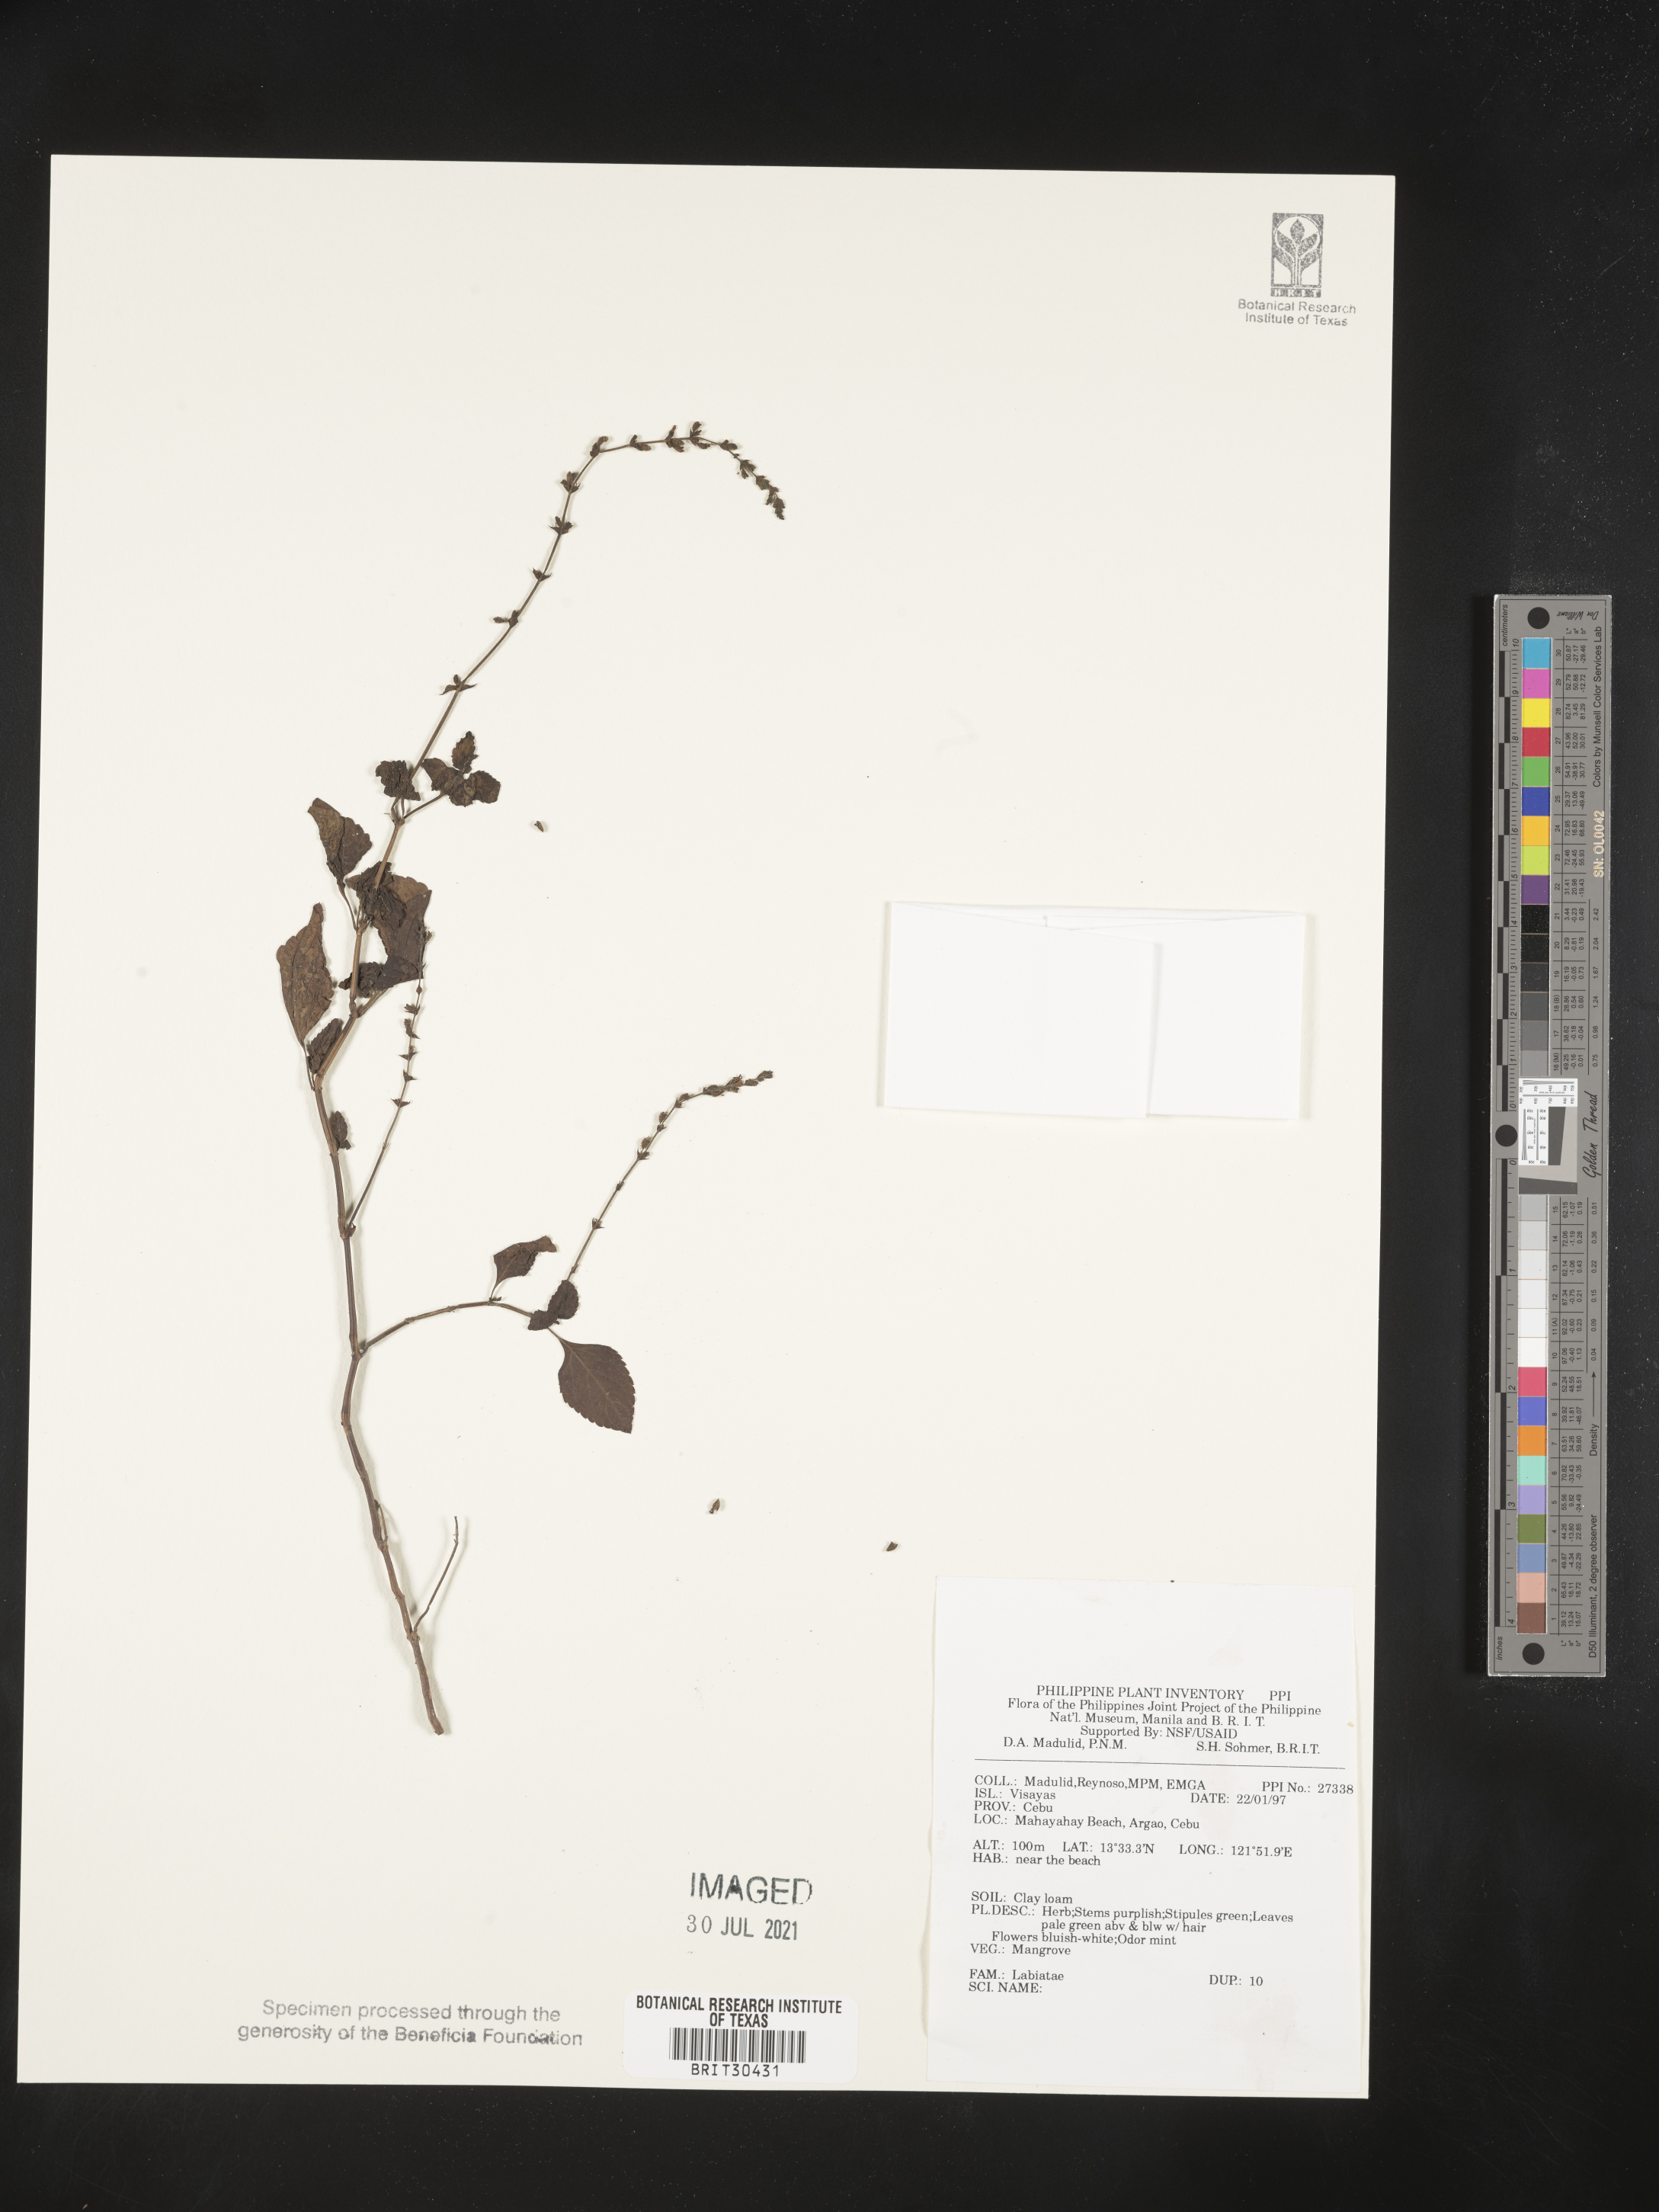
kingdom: Plantae
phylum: Tracheophyta
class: Magnoliopsida
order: Lamiales
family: Lamiaceae
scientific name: Lamiaceae
